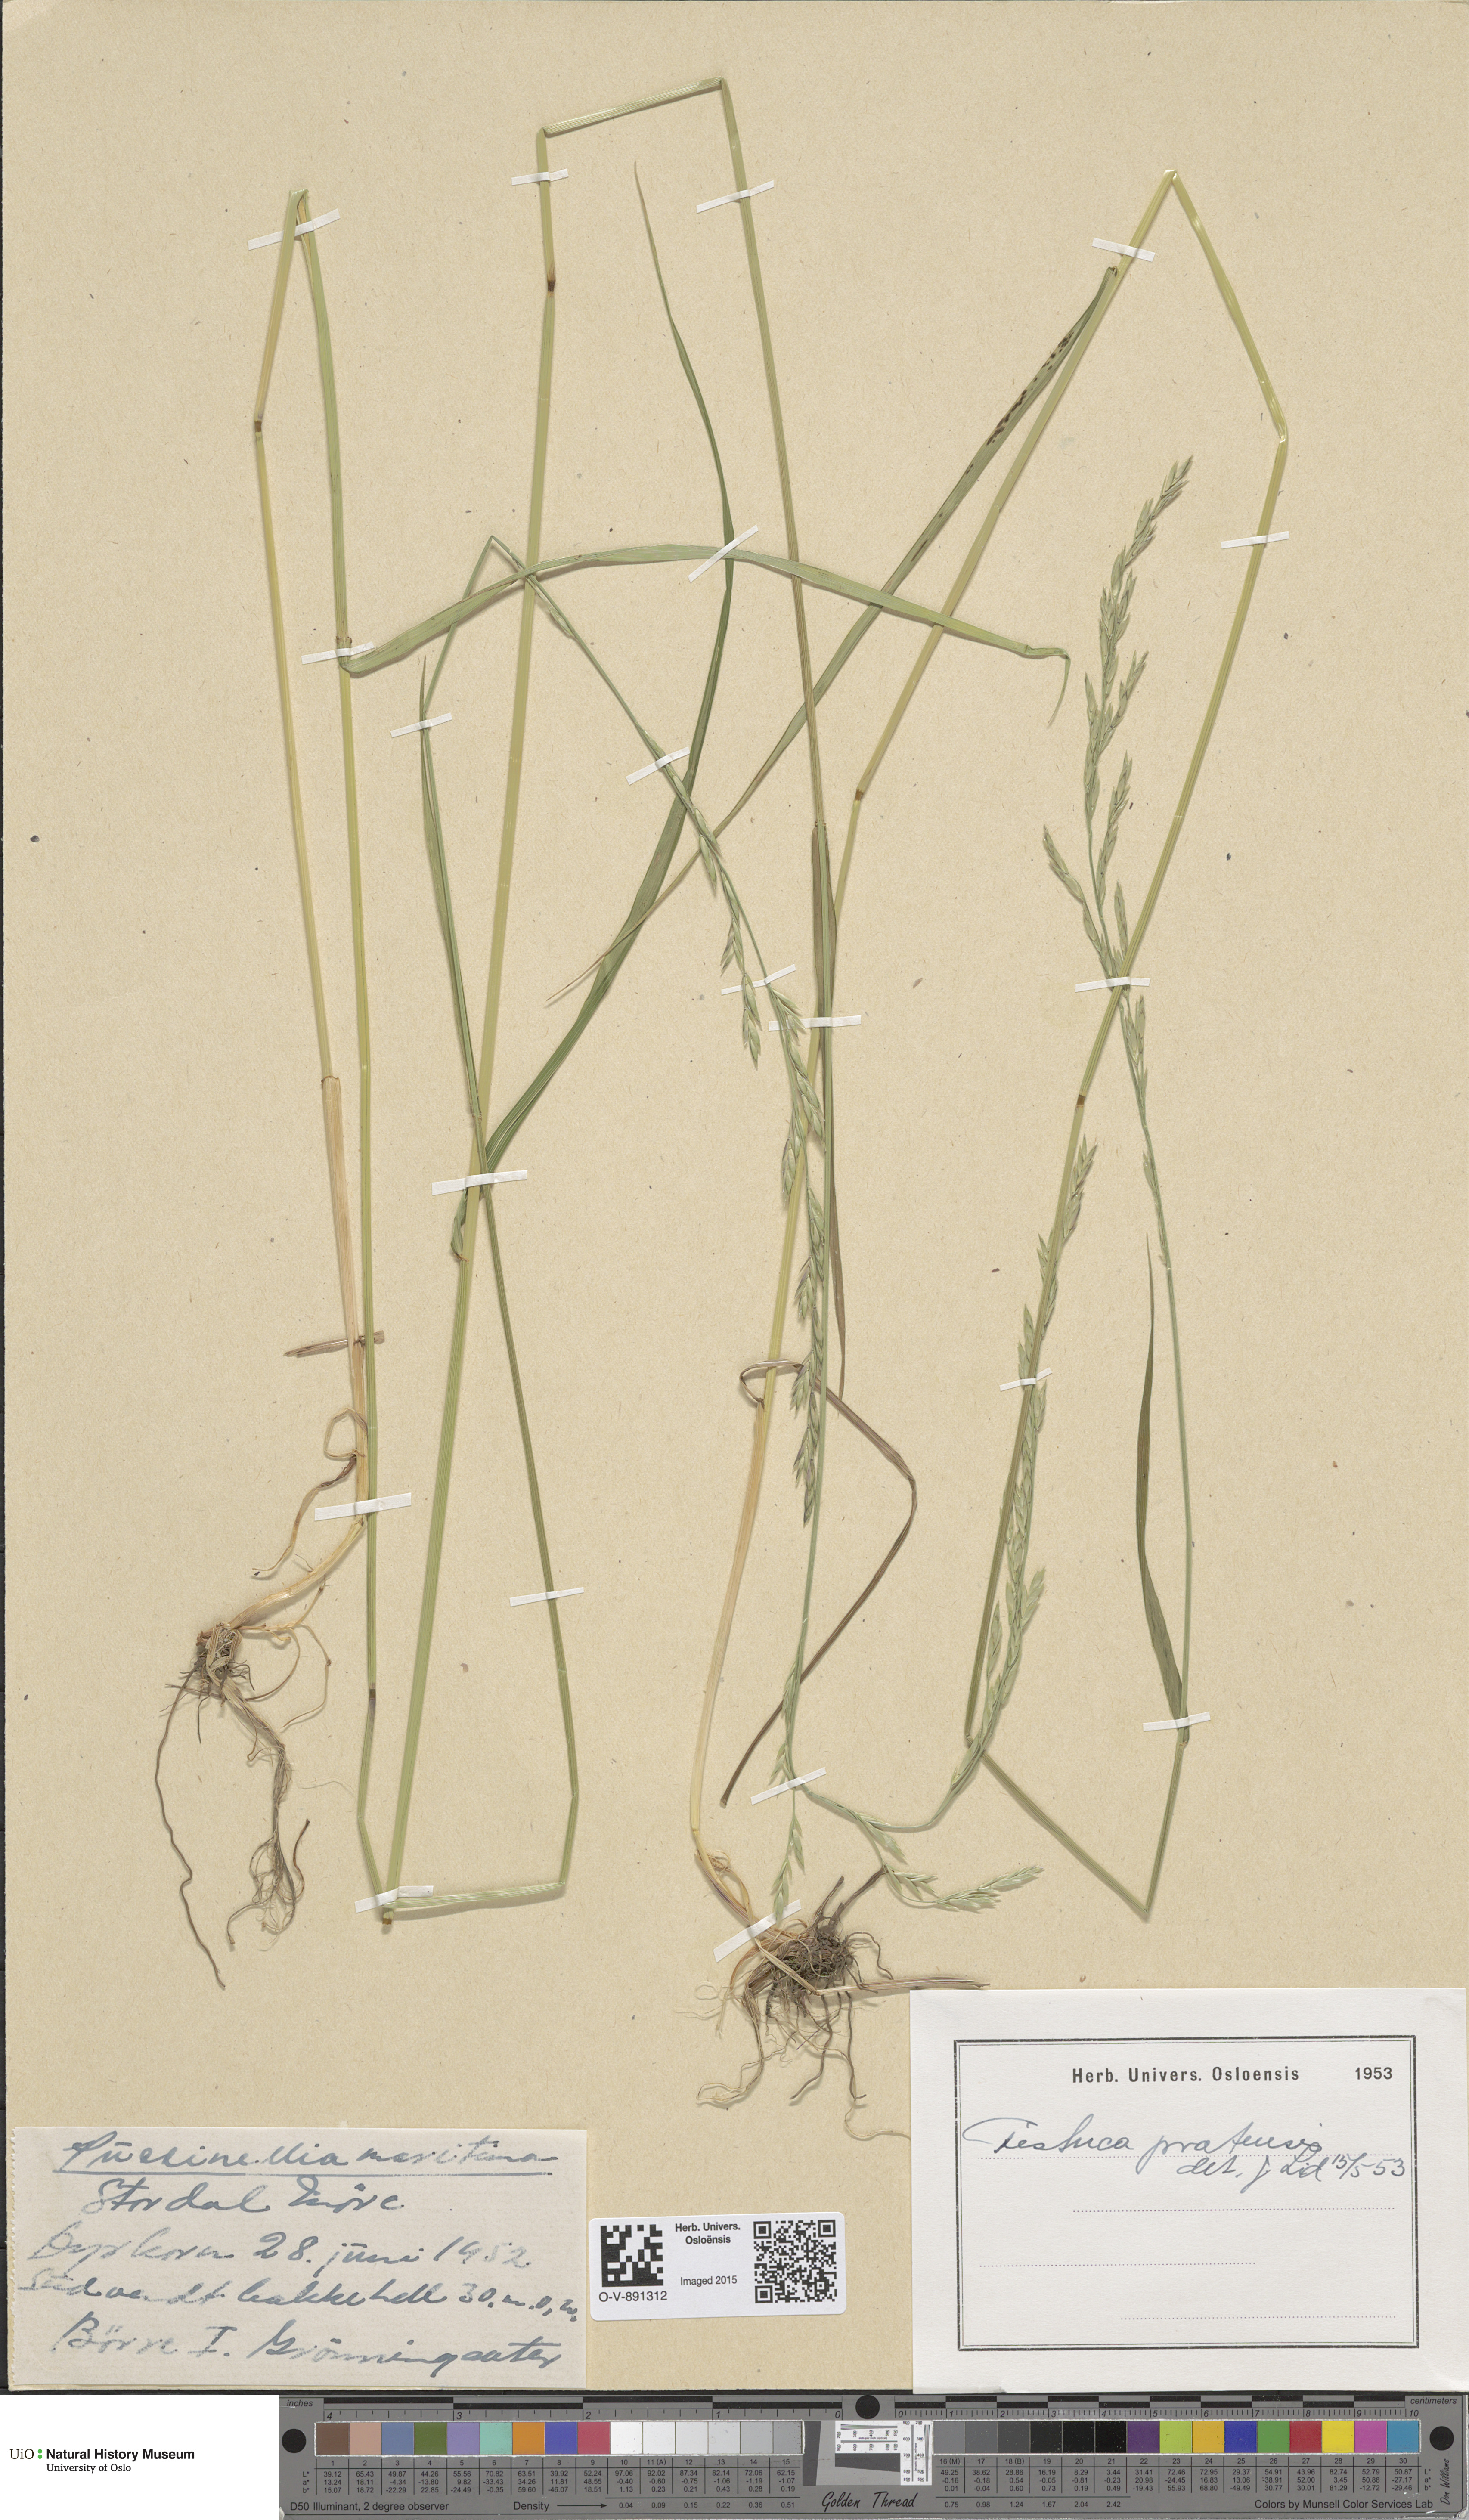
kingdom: Plantae
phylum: Tracheophyta
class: Liliopsida
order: Poales
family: Poaceae
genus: Lolium
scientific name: Lolium pratense
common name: Dover grass
